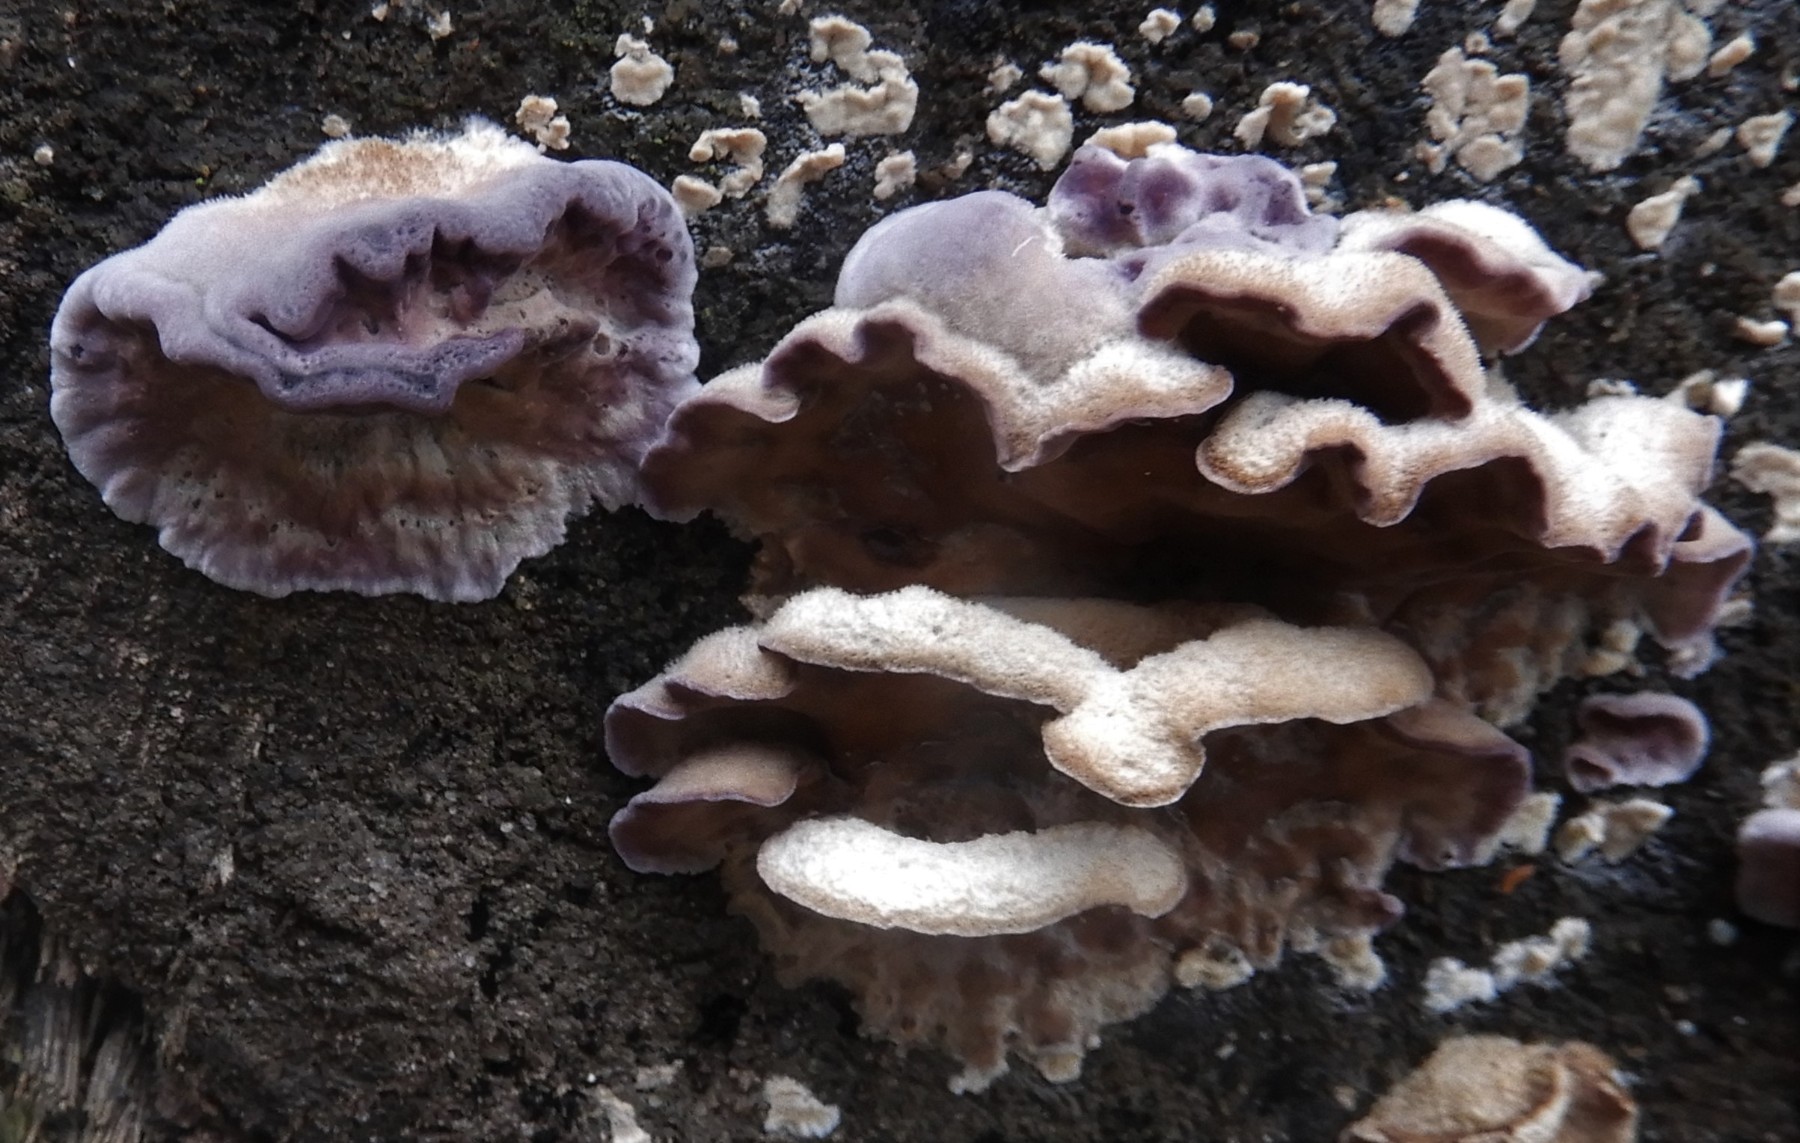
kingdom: Fungi
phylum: Basidiomycota
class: Agaricomycetes
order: Agaricales
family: Cyphellaceae
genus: Chondrostereum
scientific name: Chondrostereum purpureum
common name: purpurlædersvamp
